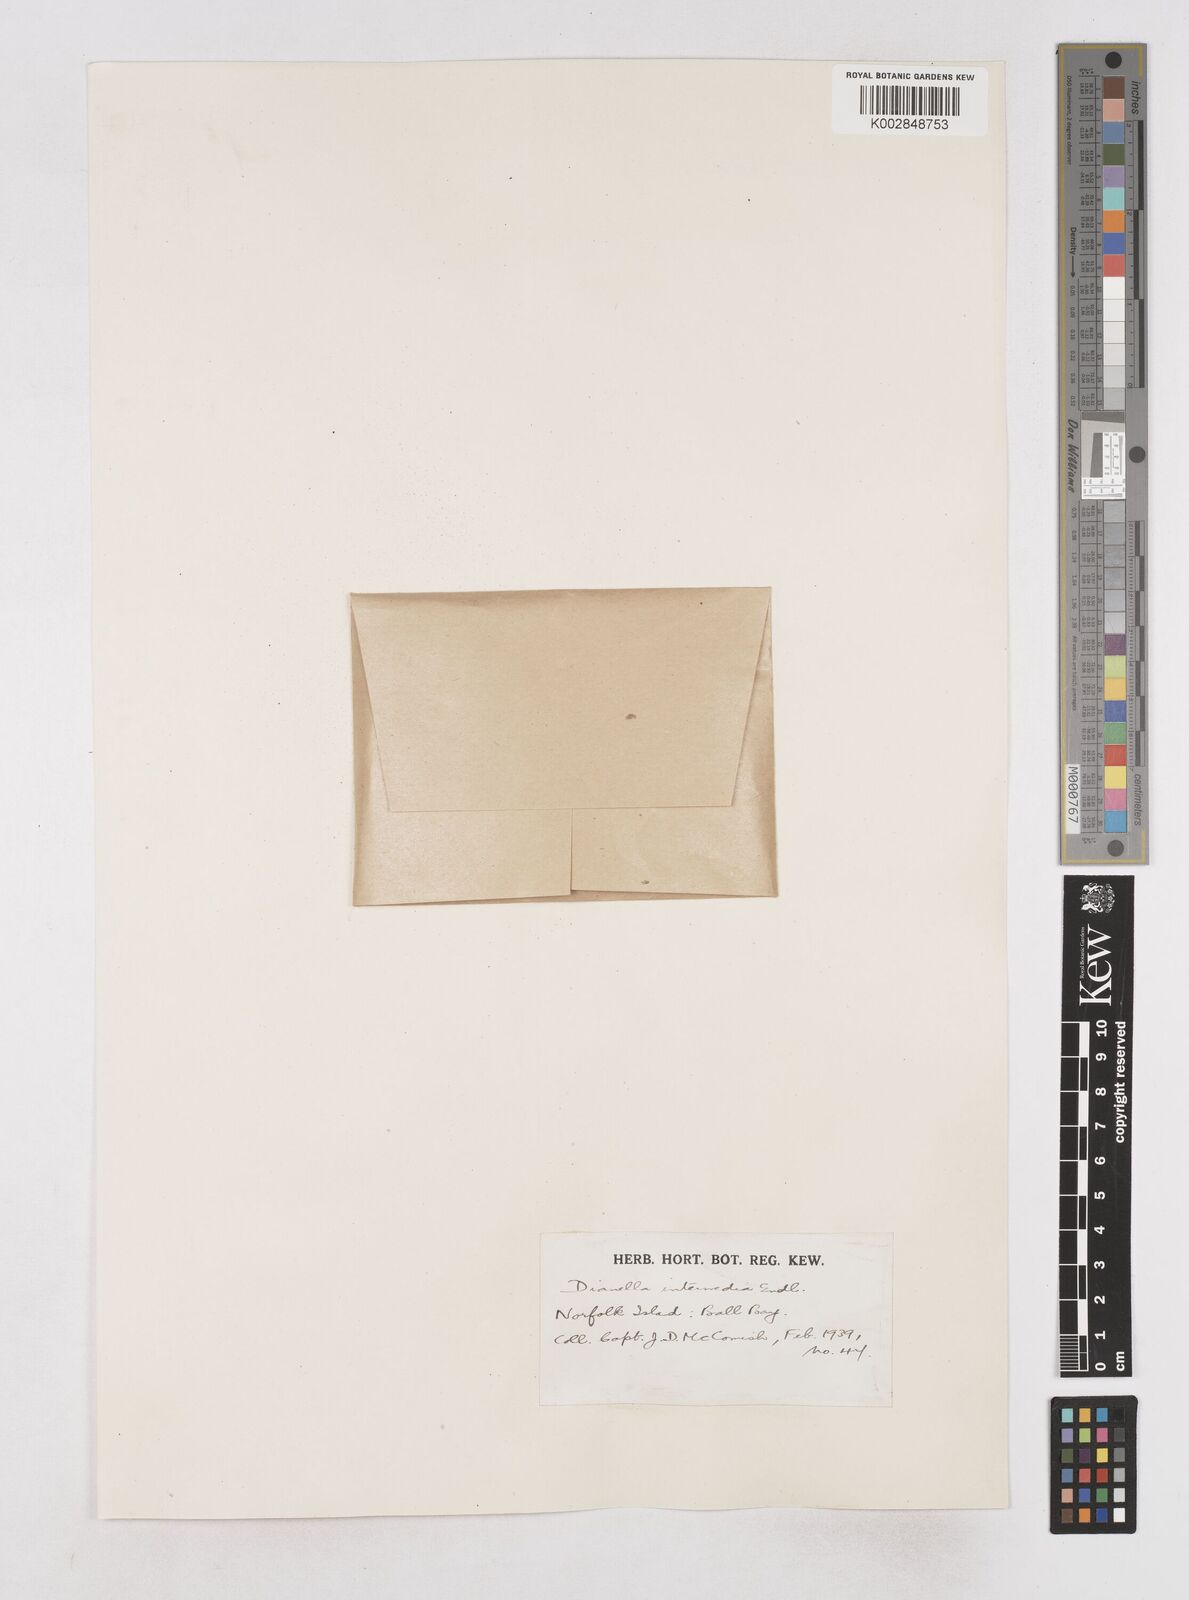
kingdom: Plantae
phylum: Tracheophyta
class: Liliopsida
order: Asparagales
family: Asphodelaceae
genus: Dianella
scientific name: Dianella intermedia
